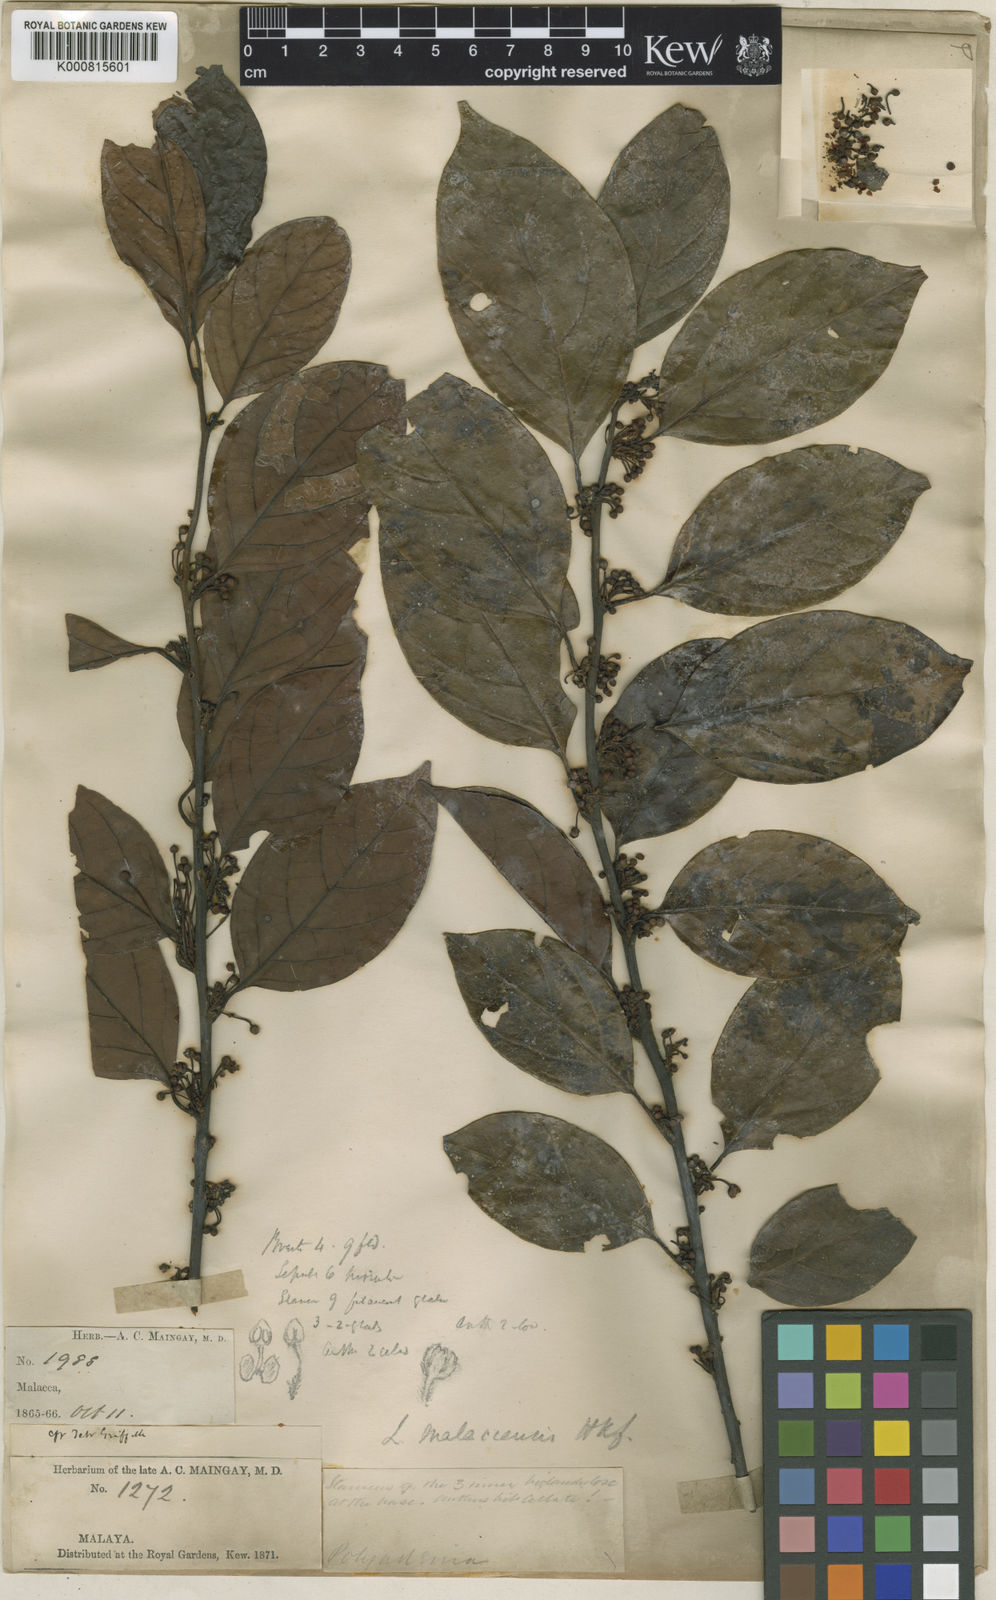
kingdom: Plantae
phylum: Tracheophyta
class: Magnoliopsida
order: Laurales
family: Lauraceae
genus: Lindera
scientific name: Lindera lucida
